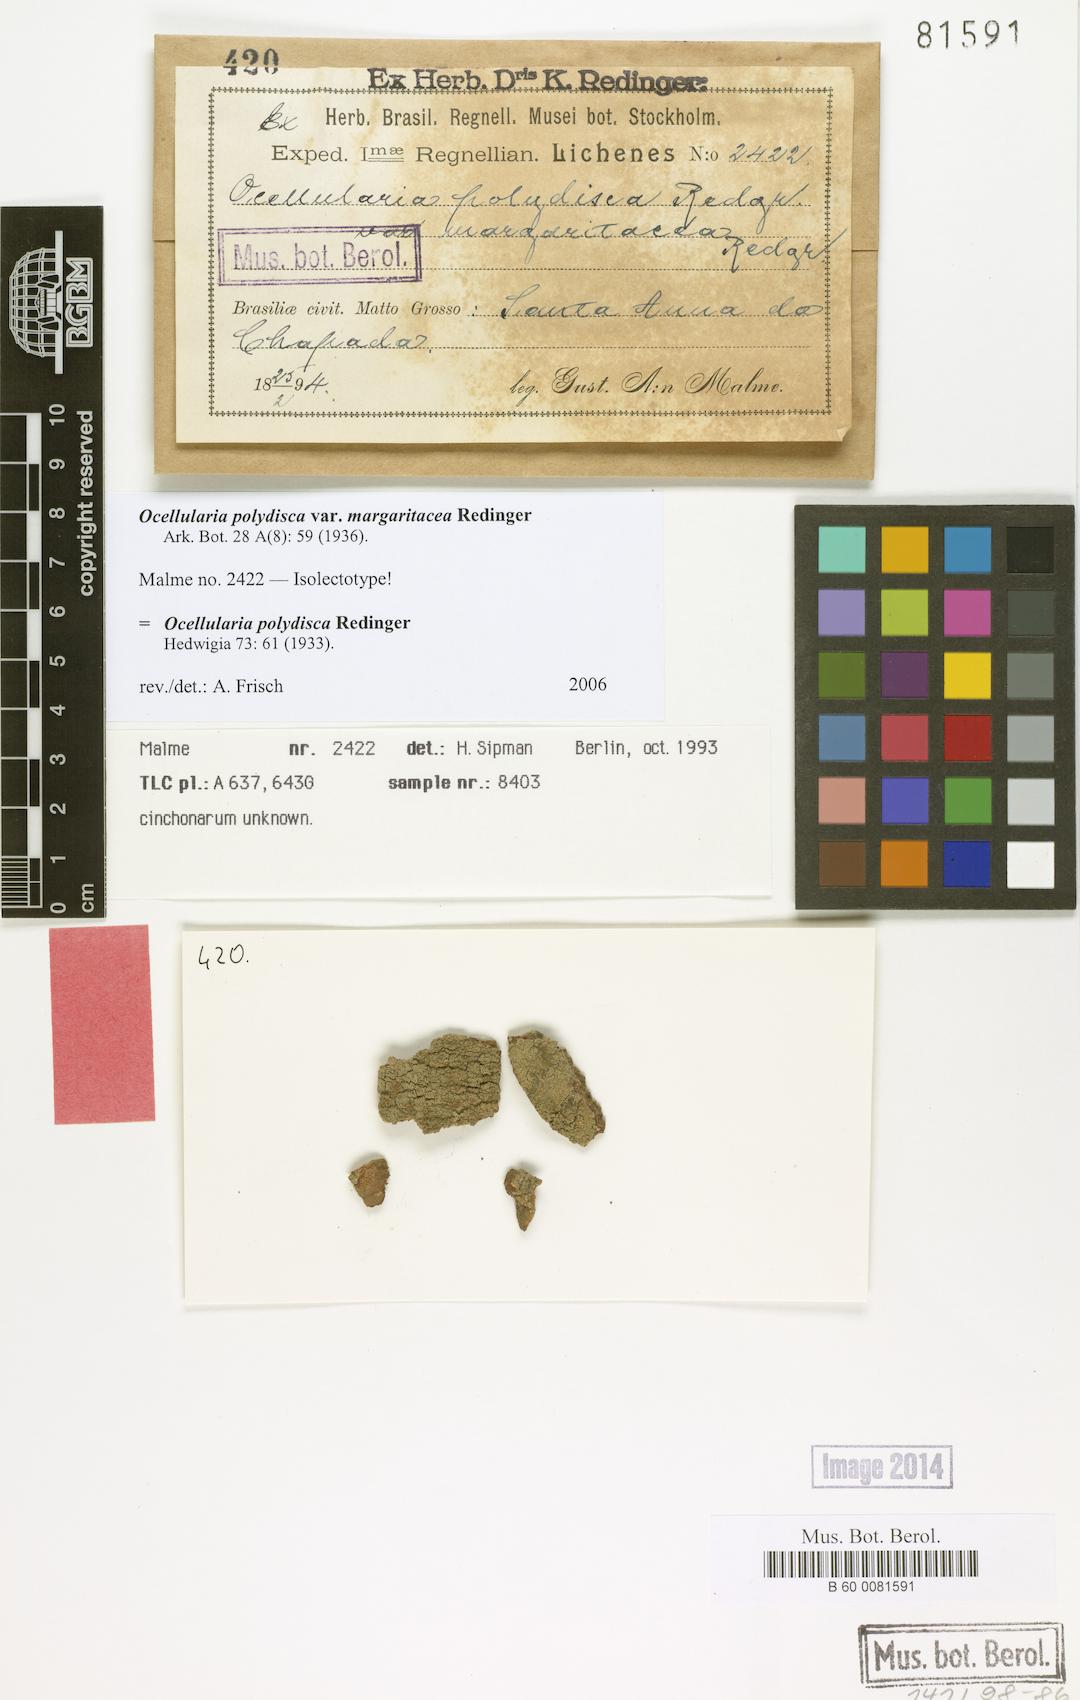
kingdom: Fungi
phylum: Ascomycota
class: Lecanoromycetes
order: Ostropales
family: Graphidaceae
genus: Ocellularia
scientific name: Ocellularia margaritacea
